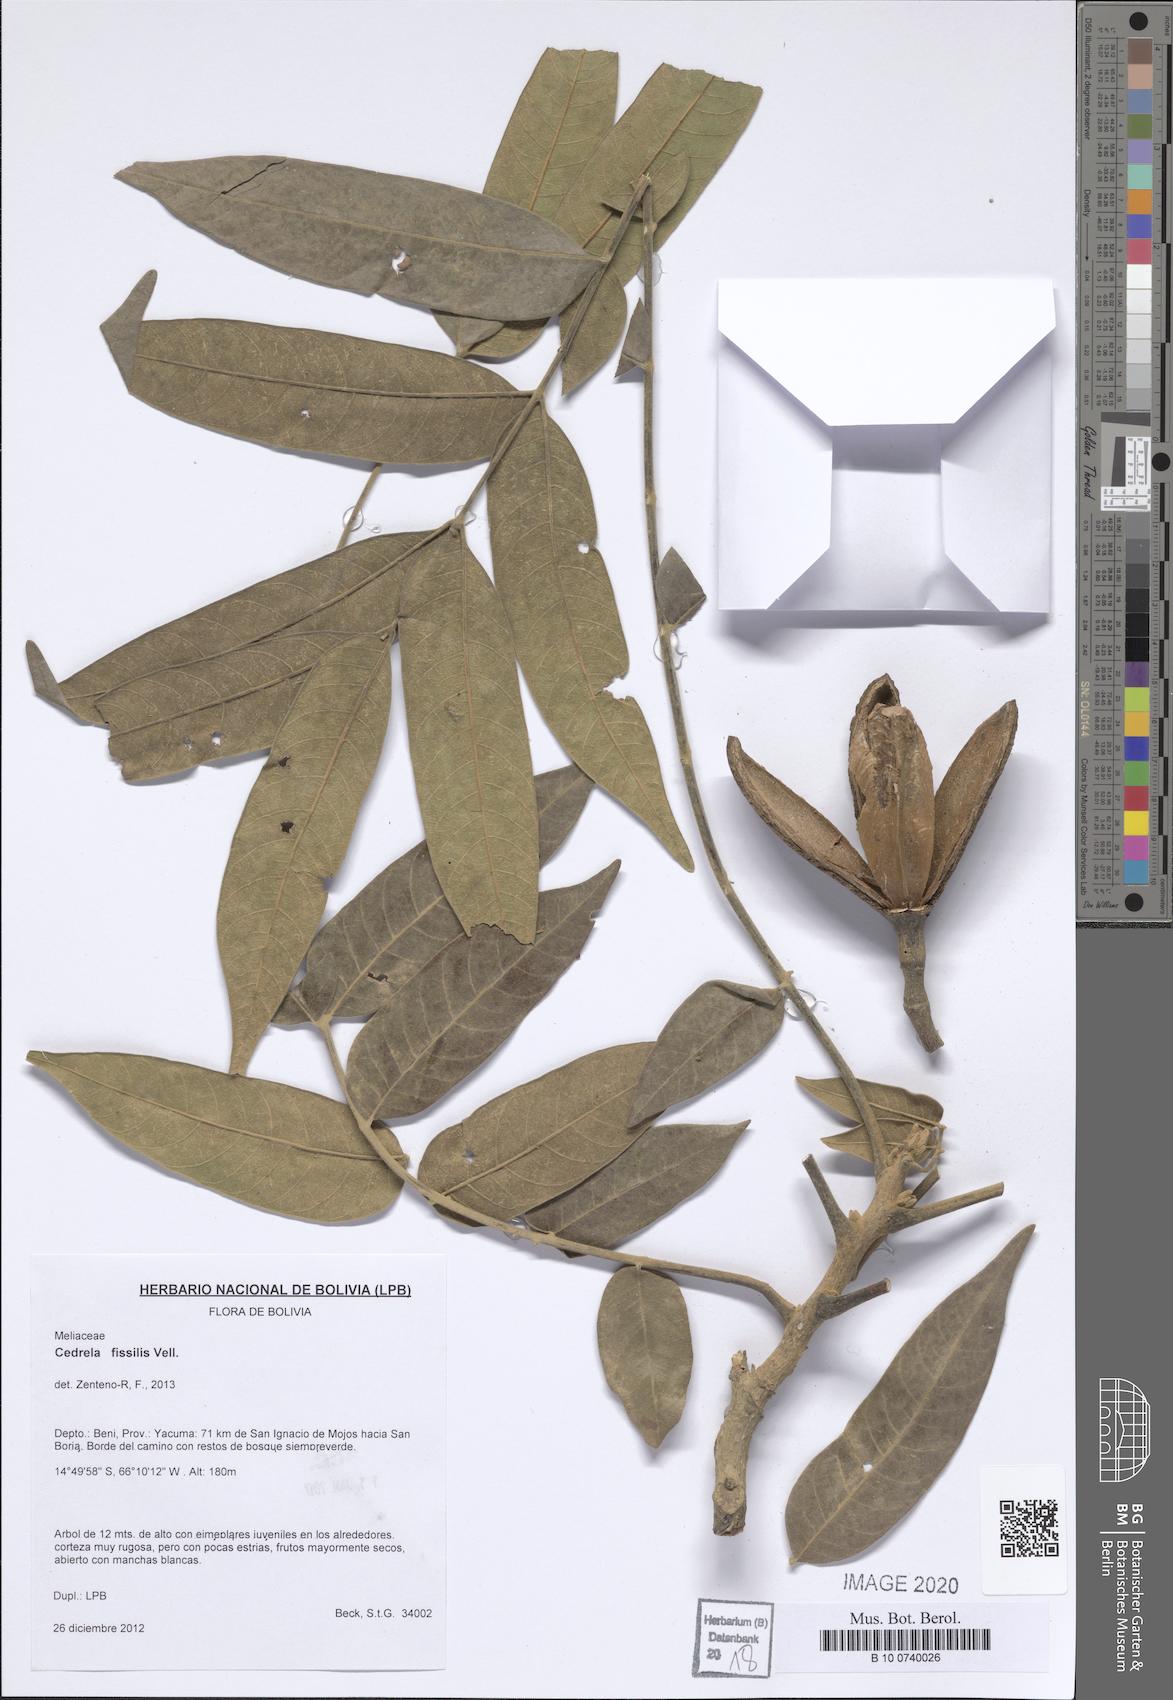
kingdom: Plantae
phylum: Tracheophyta
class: Magnoliopsida
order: Sapindales
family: Meliaceae
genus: Cedrela
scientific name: Cedrela fissilis
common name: Argentine cedar
